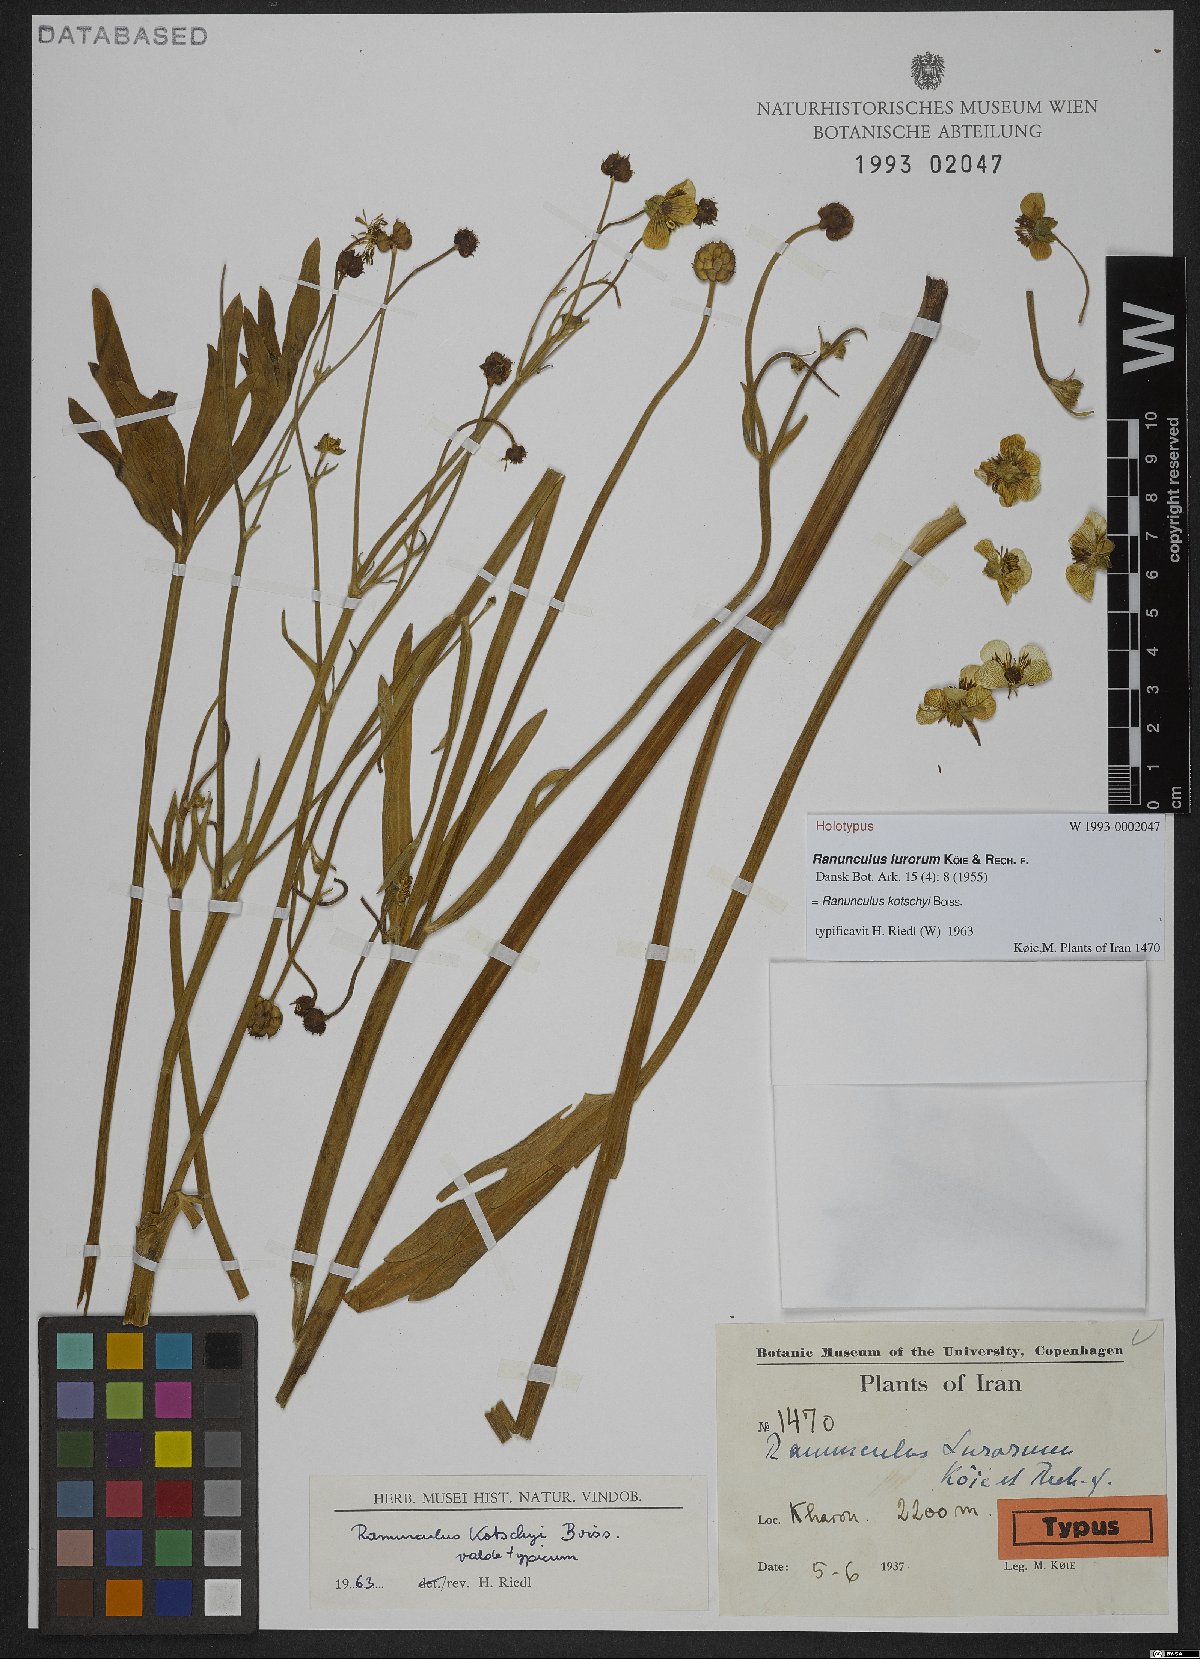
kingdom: Plantae
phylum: Tracheophyta
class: Magnoliopsida
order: Ranunculales
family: Ranunculaceae
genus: Ranunculus
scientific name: Ranunculus kotschyi
